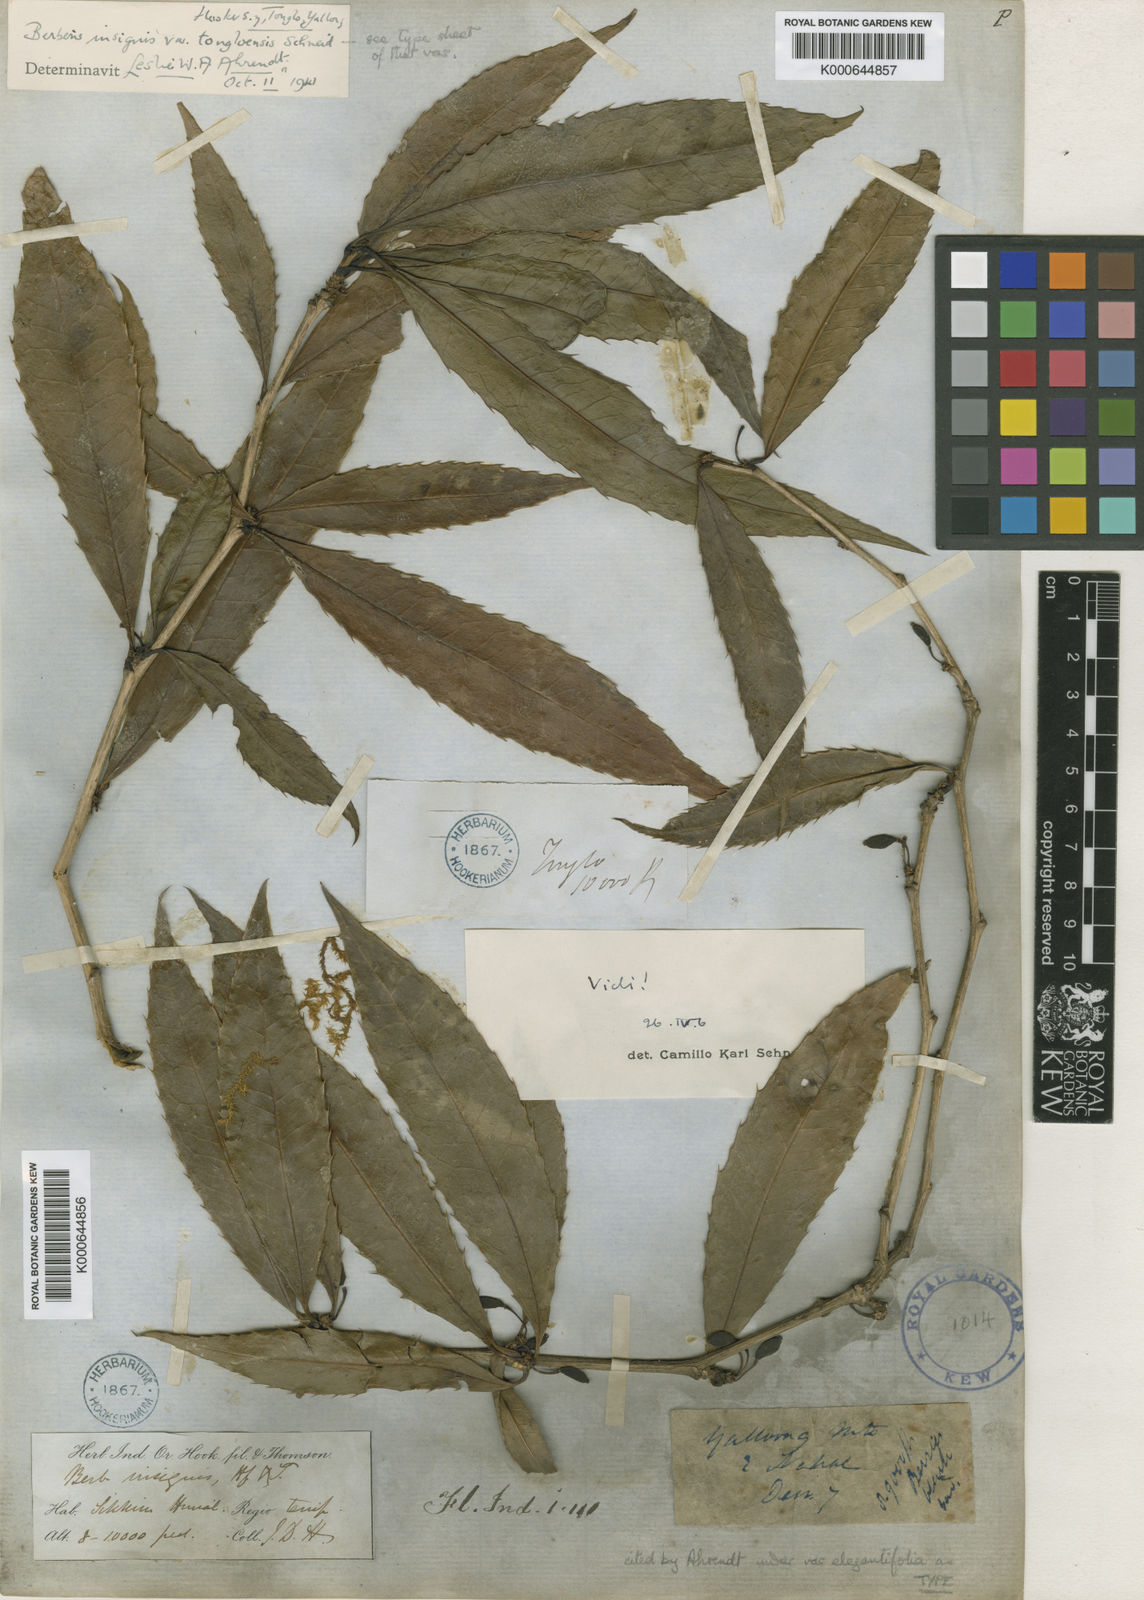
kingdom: Plantae
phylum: Tracheophyta
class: Magnoliopsida
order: Ranunculales
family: Berberidaceae
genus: Berberis
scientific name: Berberis insignis
